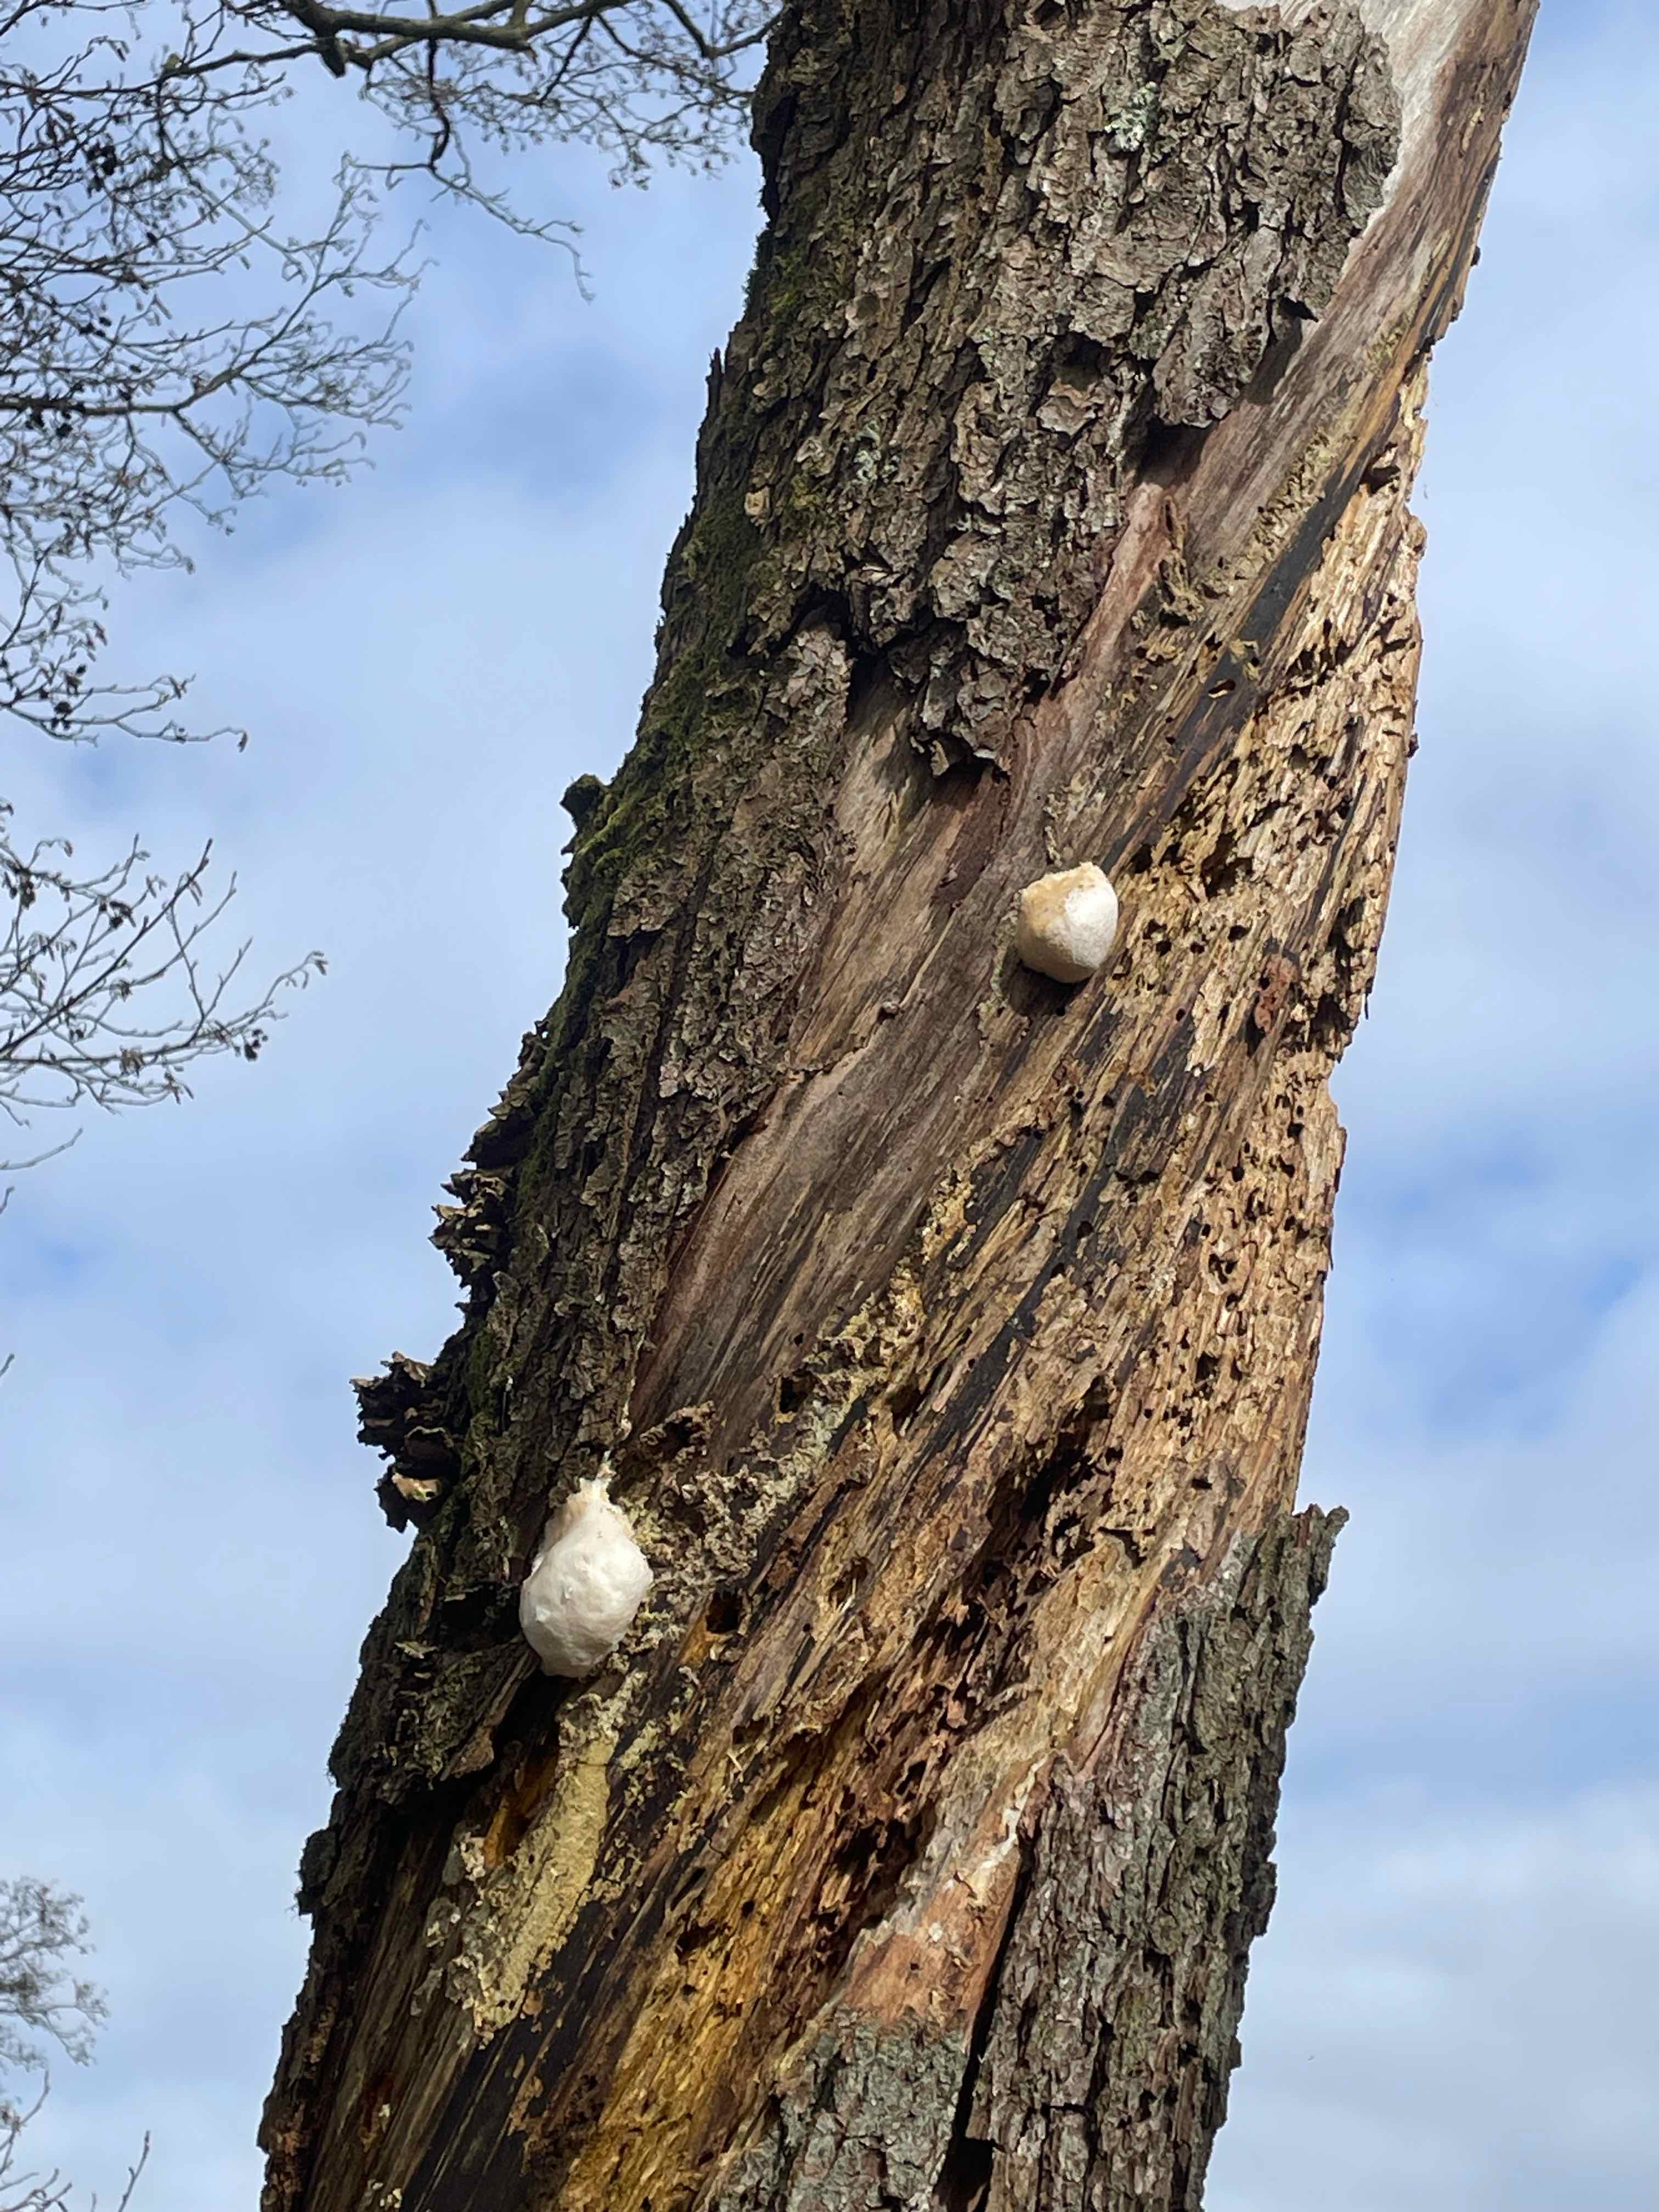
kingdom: Protozoa
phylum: Mycetozoa
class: Myxomycetes
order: Cribrariales
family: Tubiferaceae
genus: Reticularia
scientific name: Reticularia lycoperdon
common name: skinnende støvpude
